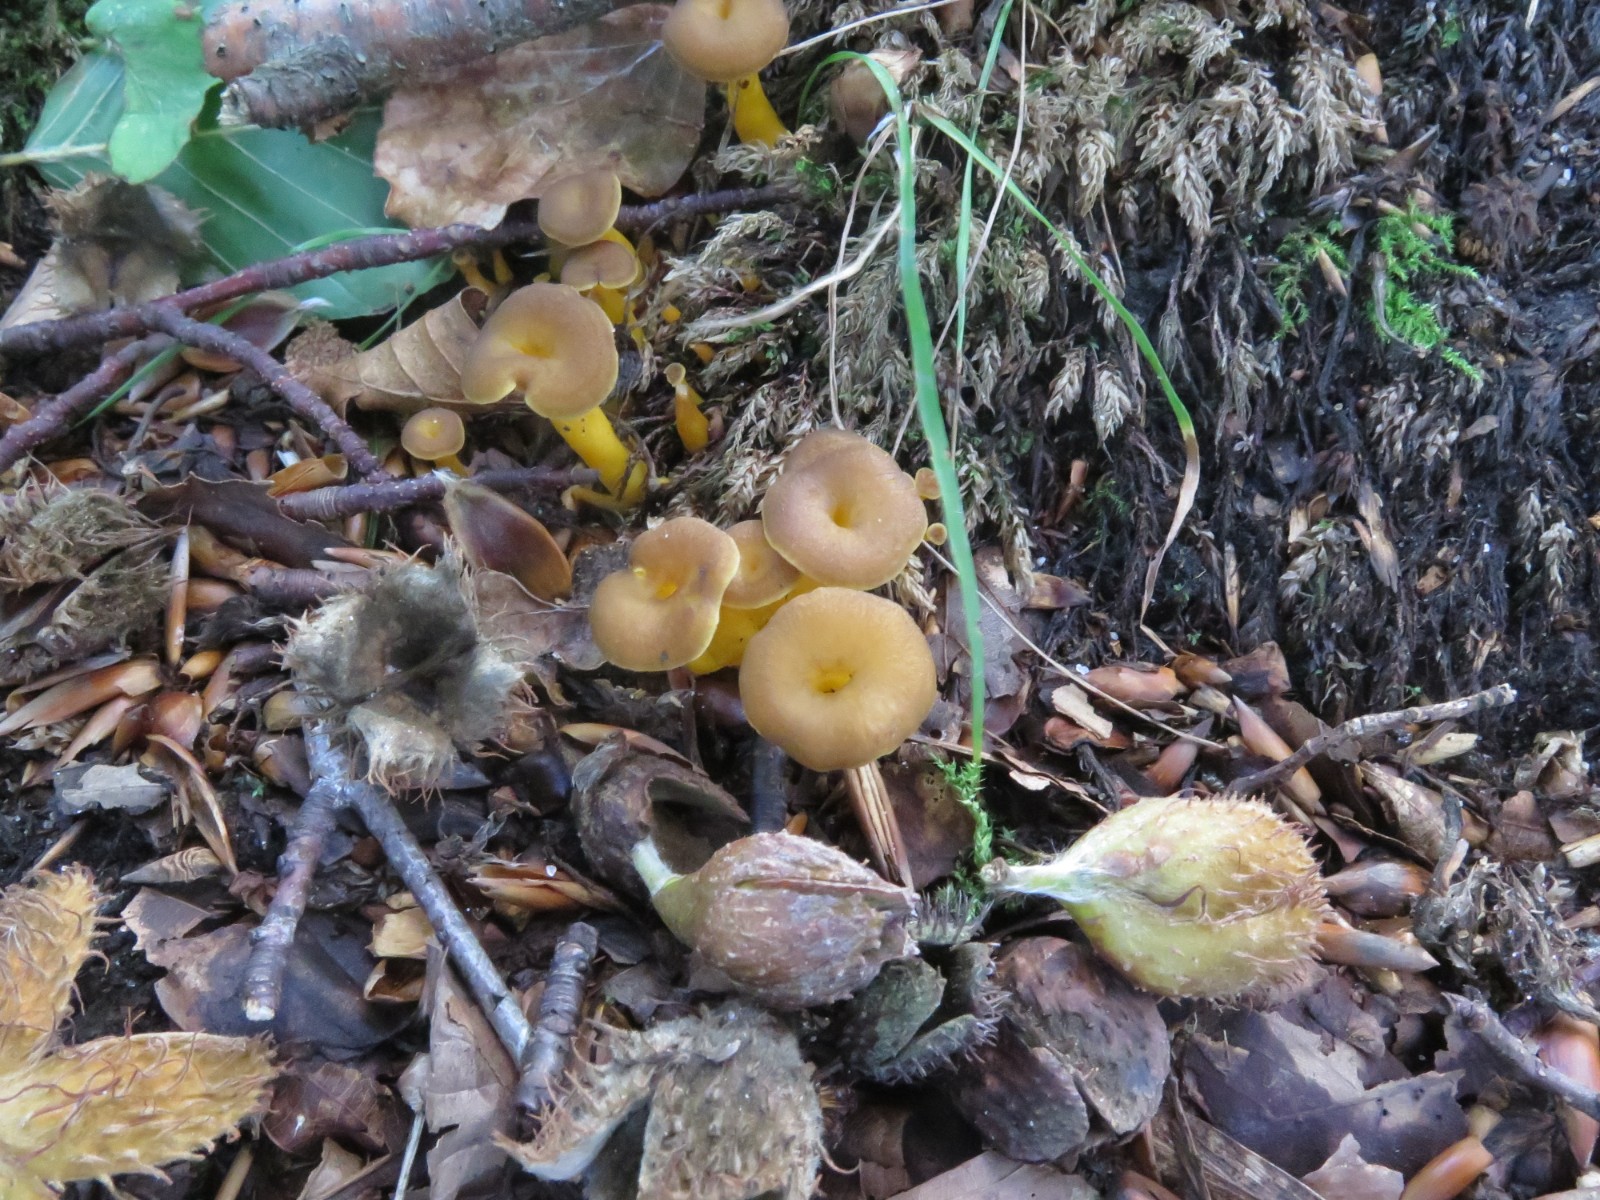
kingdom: Fungi
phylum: Basidiomycota
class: Agaricomycetes
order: Cantharellales
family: Hydnaceae
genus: Craterellus
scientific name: Craterellus tubaeformis
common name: tragt-kantarel
